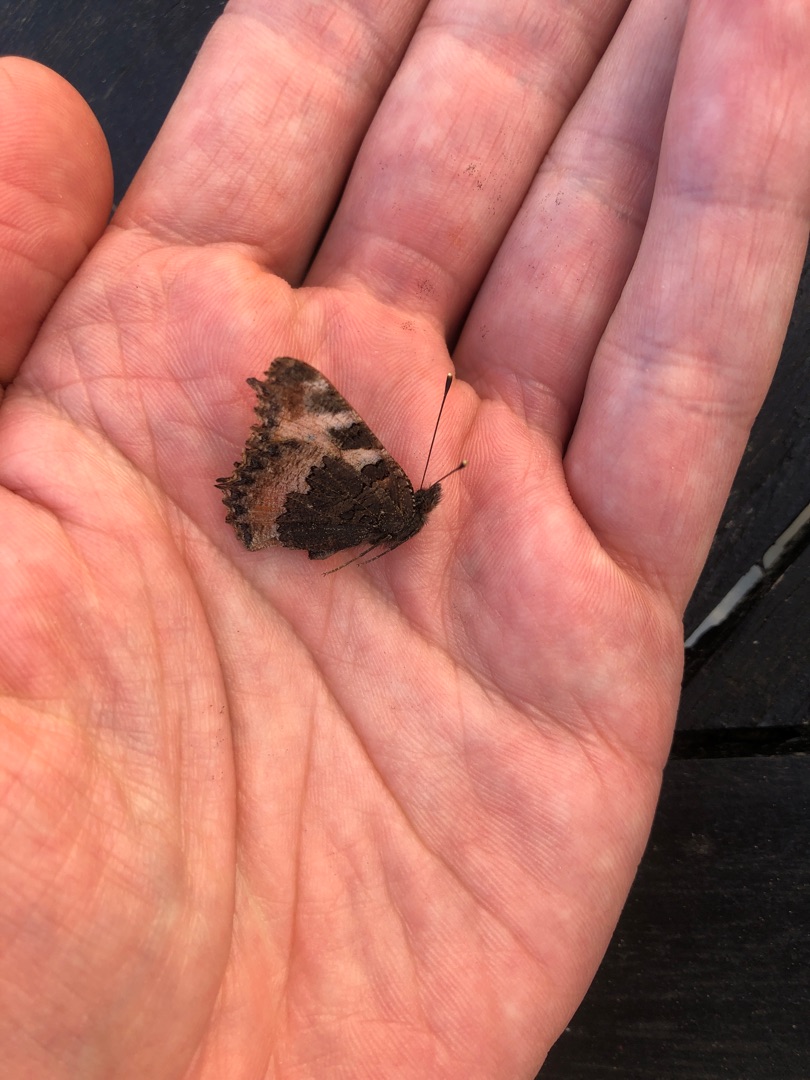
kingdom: Animalia
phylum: Arthropoda
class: Insecta
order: Lepidoptera
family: Nymphalidae
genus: Aglais
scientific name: Aglais urticae
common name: Nældens takvinge
